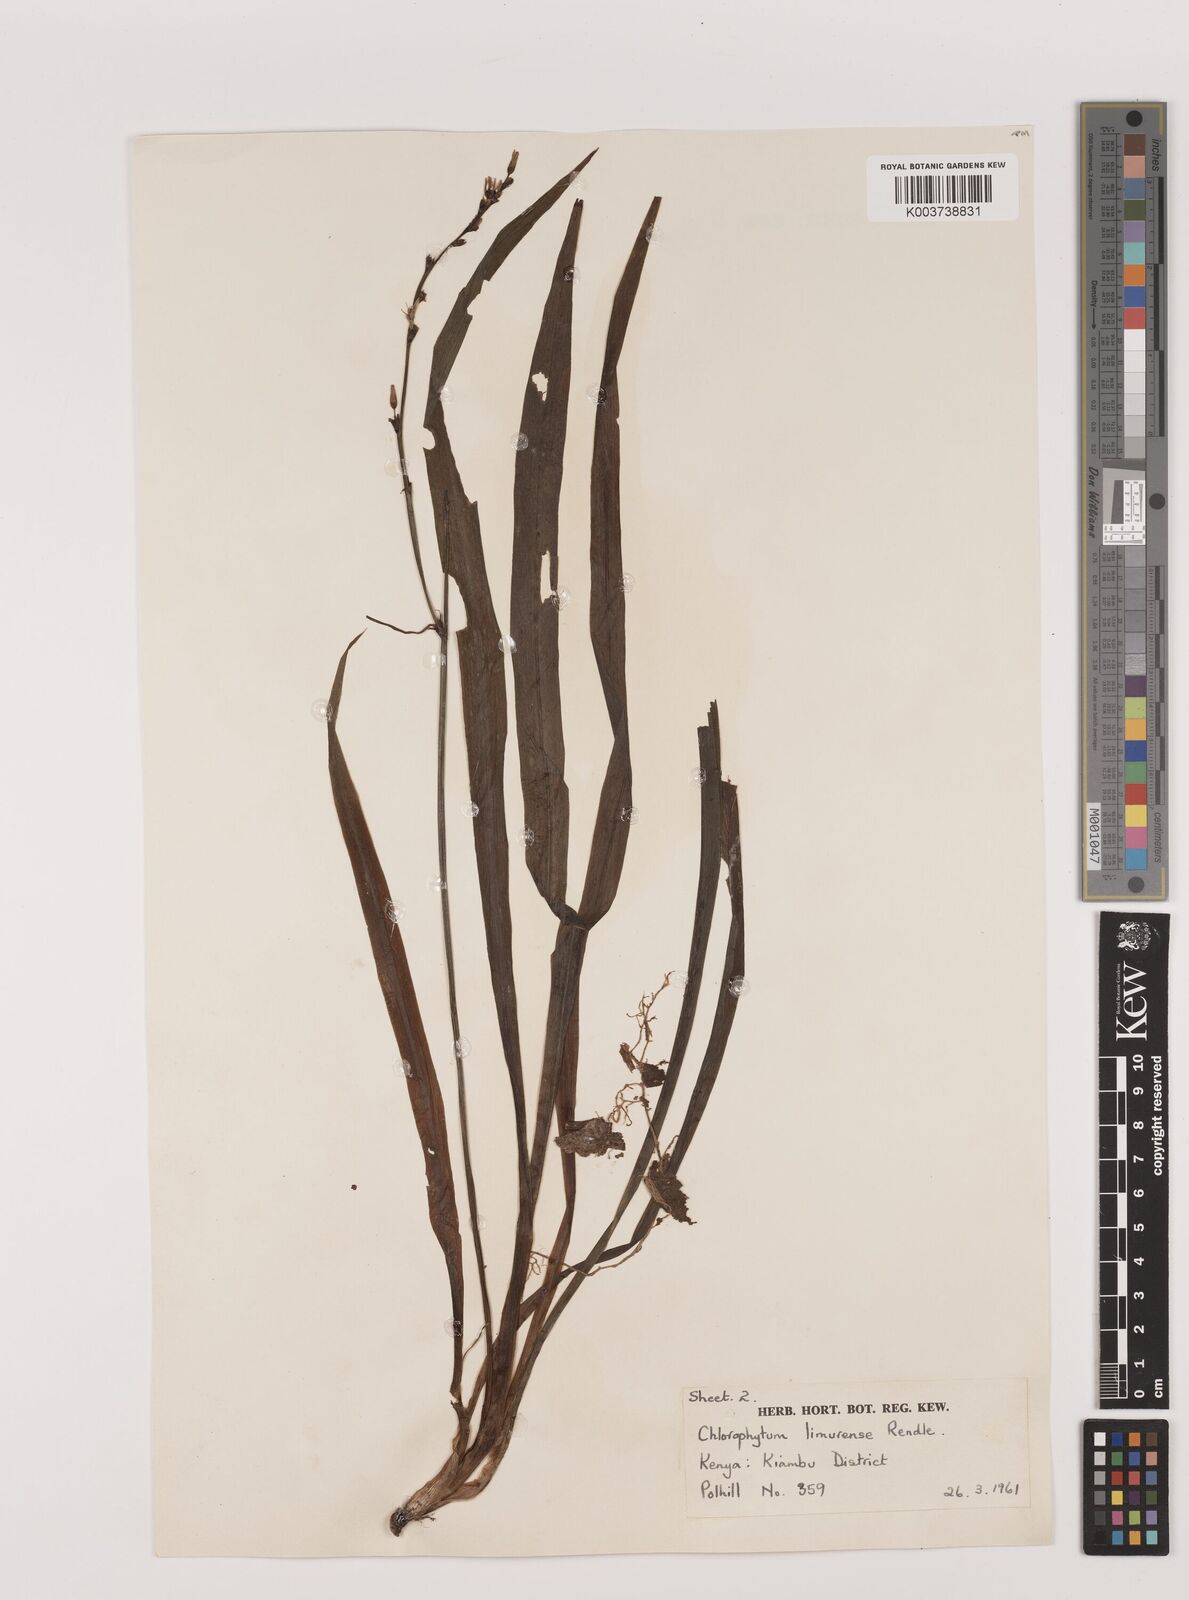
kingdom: Plantae
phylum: Tracheophyta
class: Liliopsida
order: Asparagales
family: Asparagaceae
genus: Chlorophytum
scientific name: Chlorophytum comosum
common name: Spider plant
